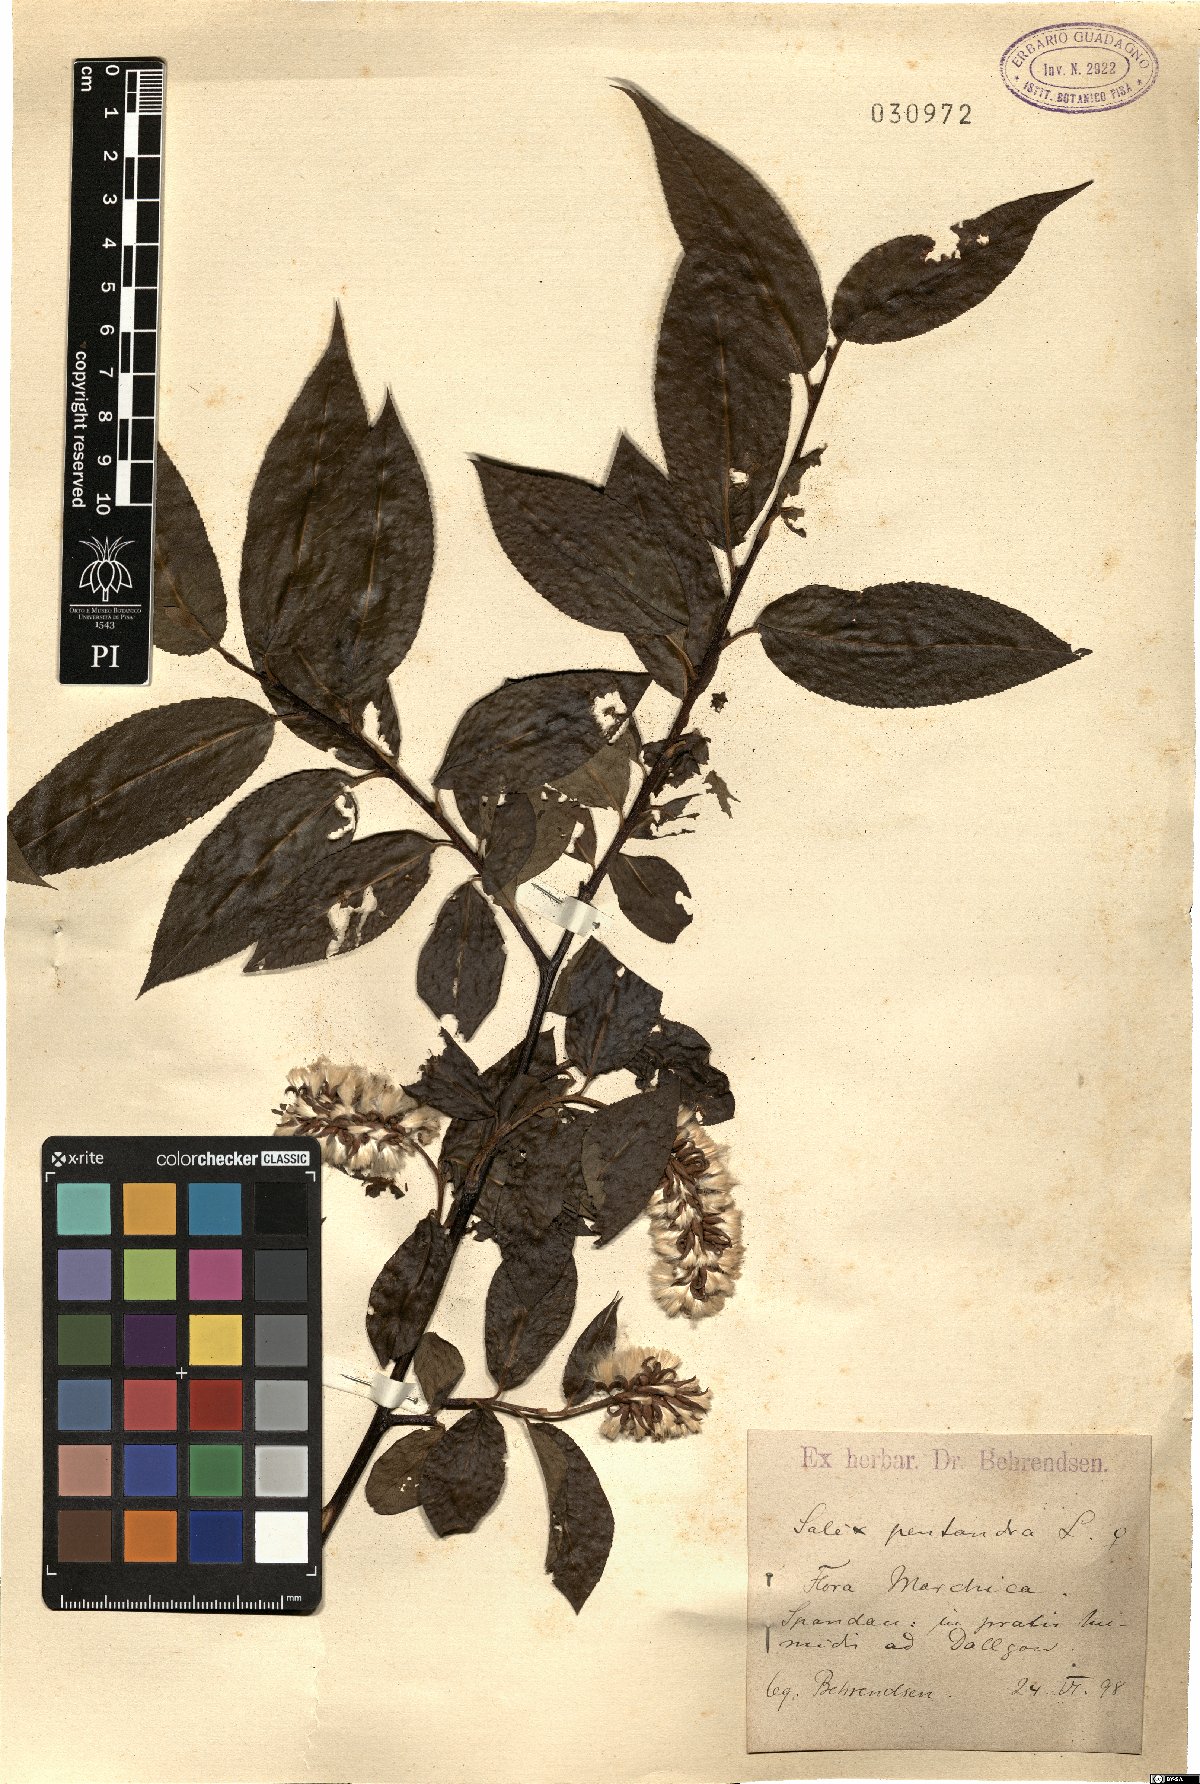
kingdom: Plantae
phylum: Tracheophyta
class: Magnoliopsida
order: Malpighiales
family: Salicaceae
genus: Salix
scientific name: Salix pentandra
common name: Bay willow
